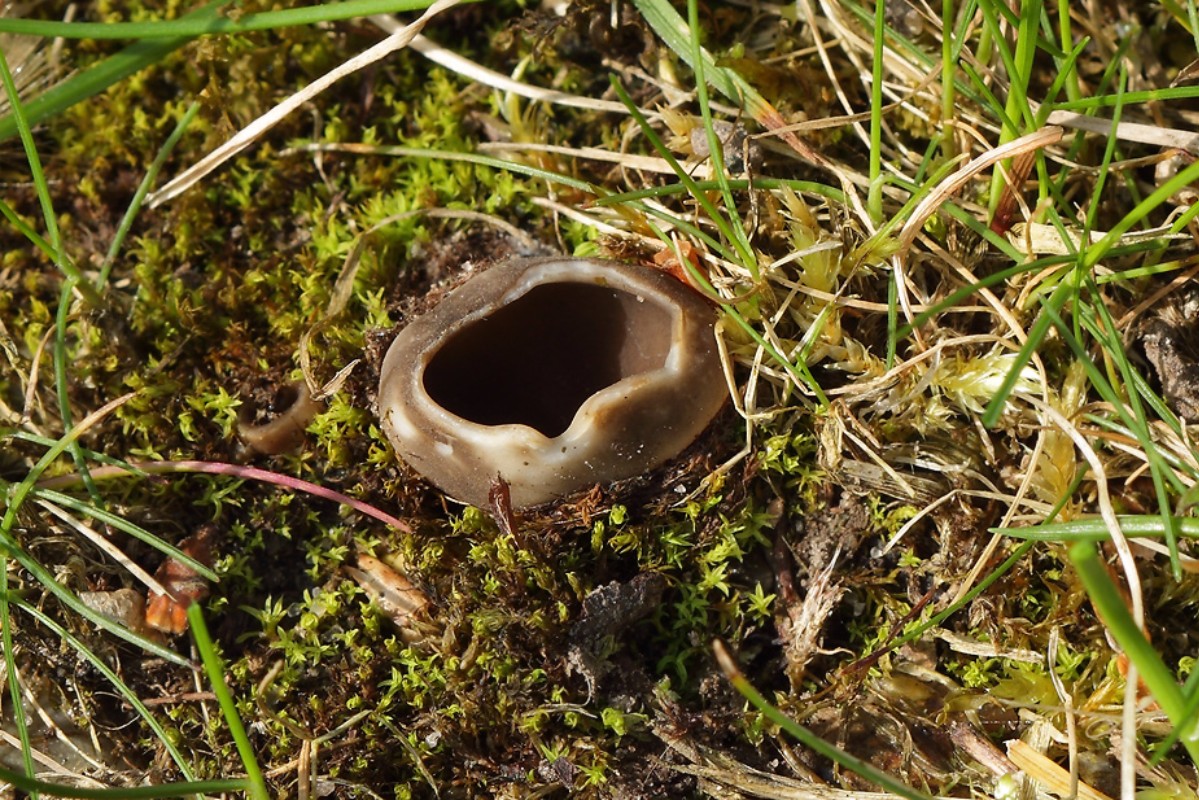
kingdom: Fungi
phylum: Ascomycota
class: Pezizomycetes
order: Pezizales
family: Helvellaceae
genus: Dissingia
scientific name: Dissingia leucomelaena
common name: sorthvid foldhat
